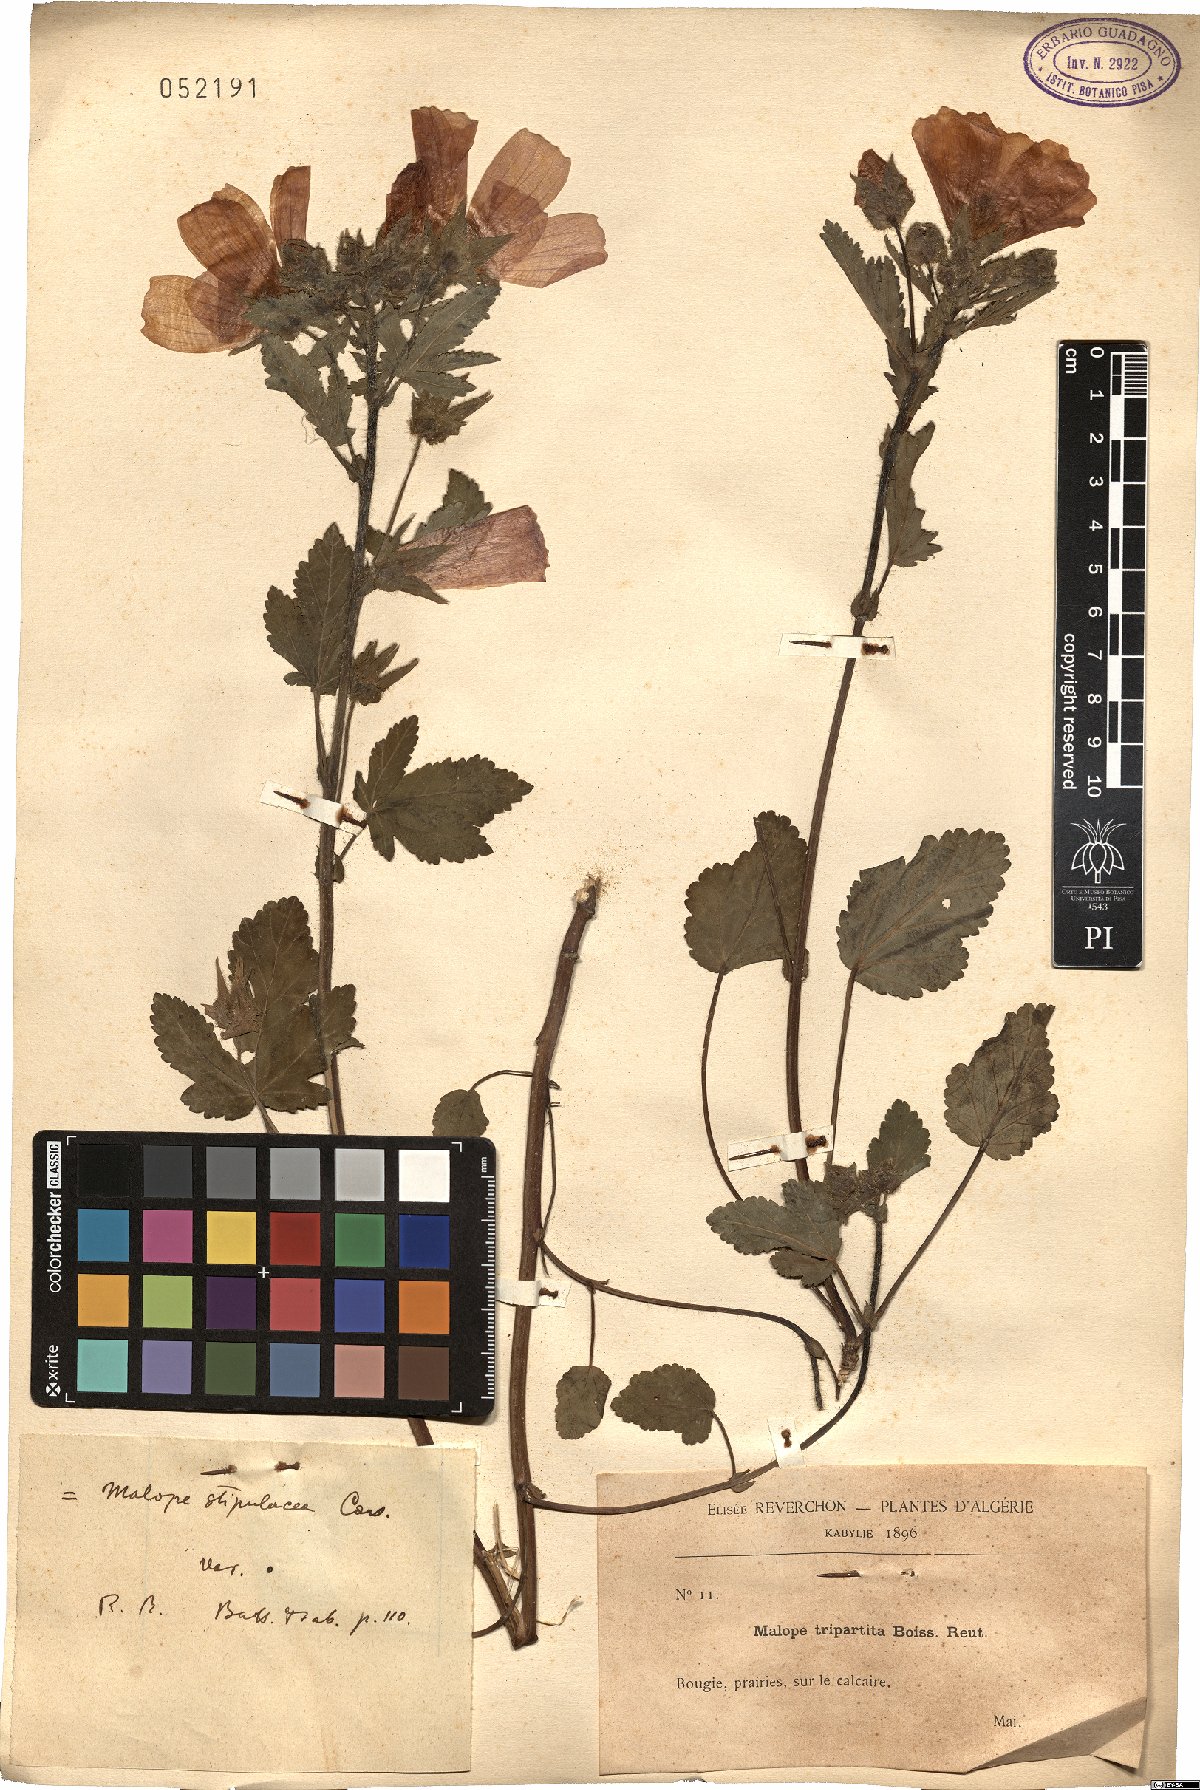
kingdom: Plantae
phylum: Tracheophyta
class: Magnoliopsida
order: Malvales
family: Malvaceae
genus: Malope
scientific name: Malope malacoides
